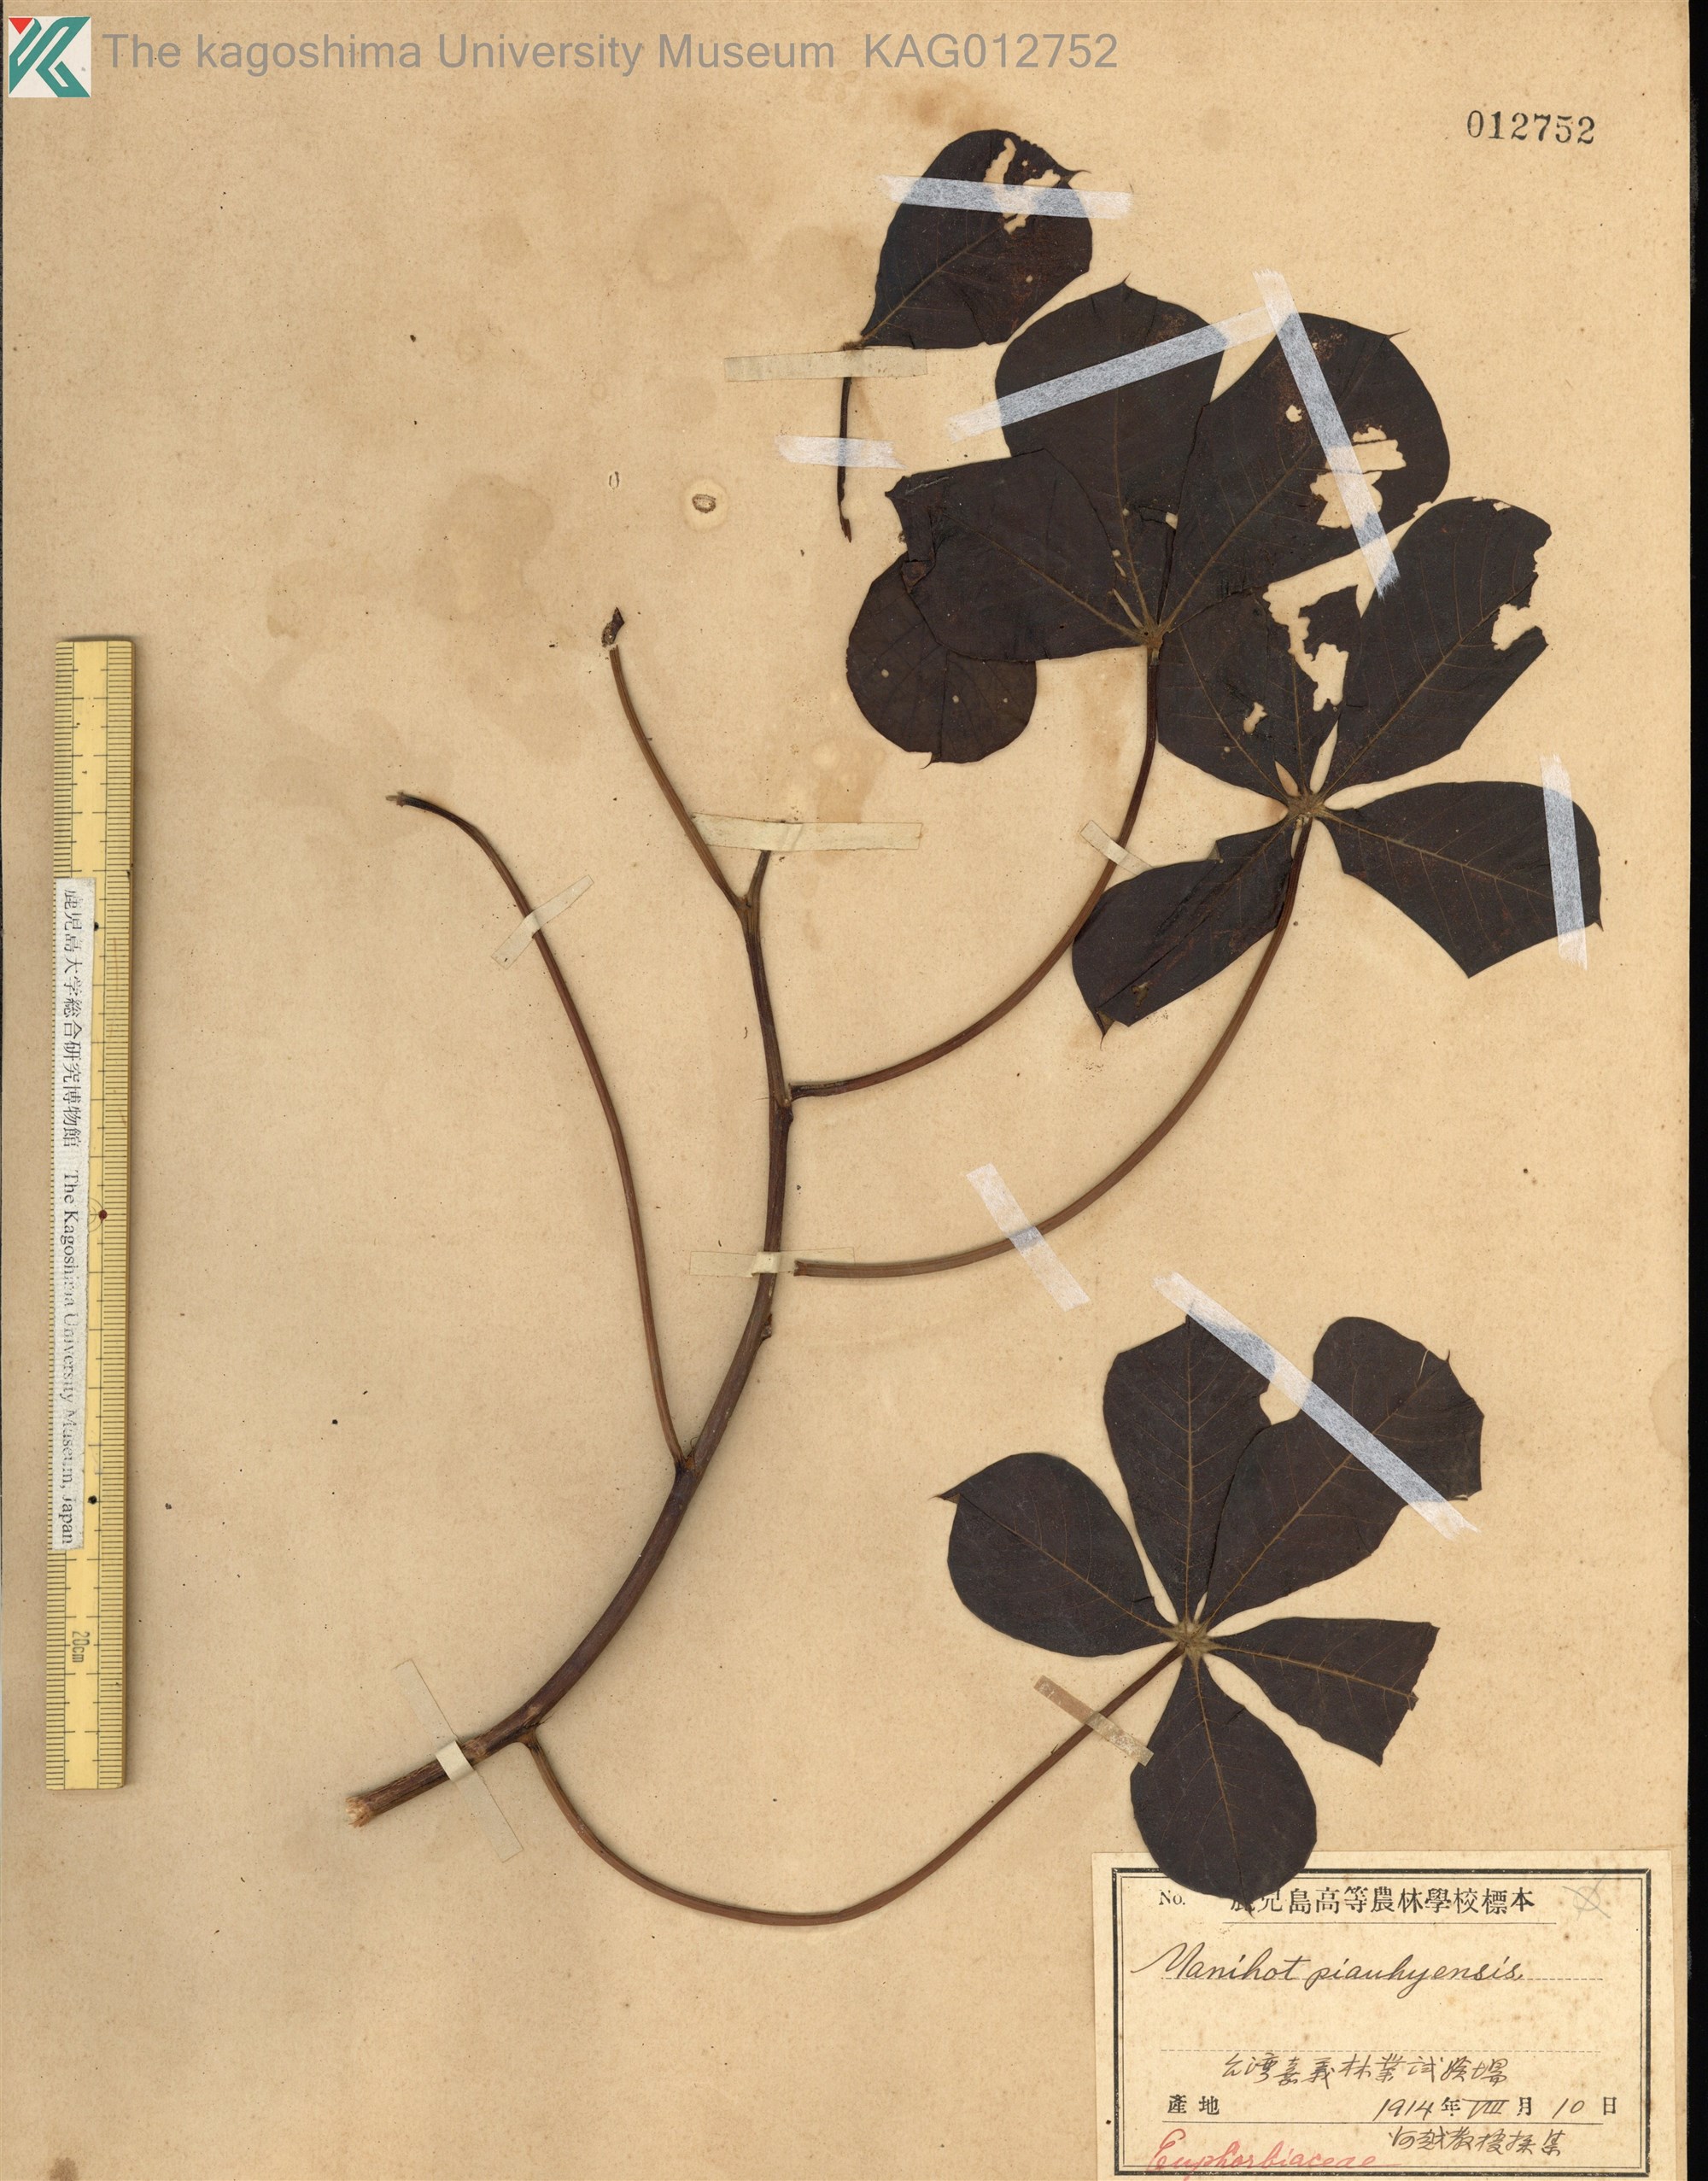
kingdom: Plantae
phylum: Tracheophyta
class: Magnoliopsida
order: Malpighiales
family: Euphorbiaceae
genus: Manihot
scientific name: Manihot caerulescens
